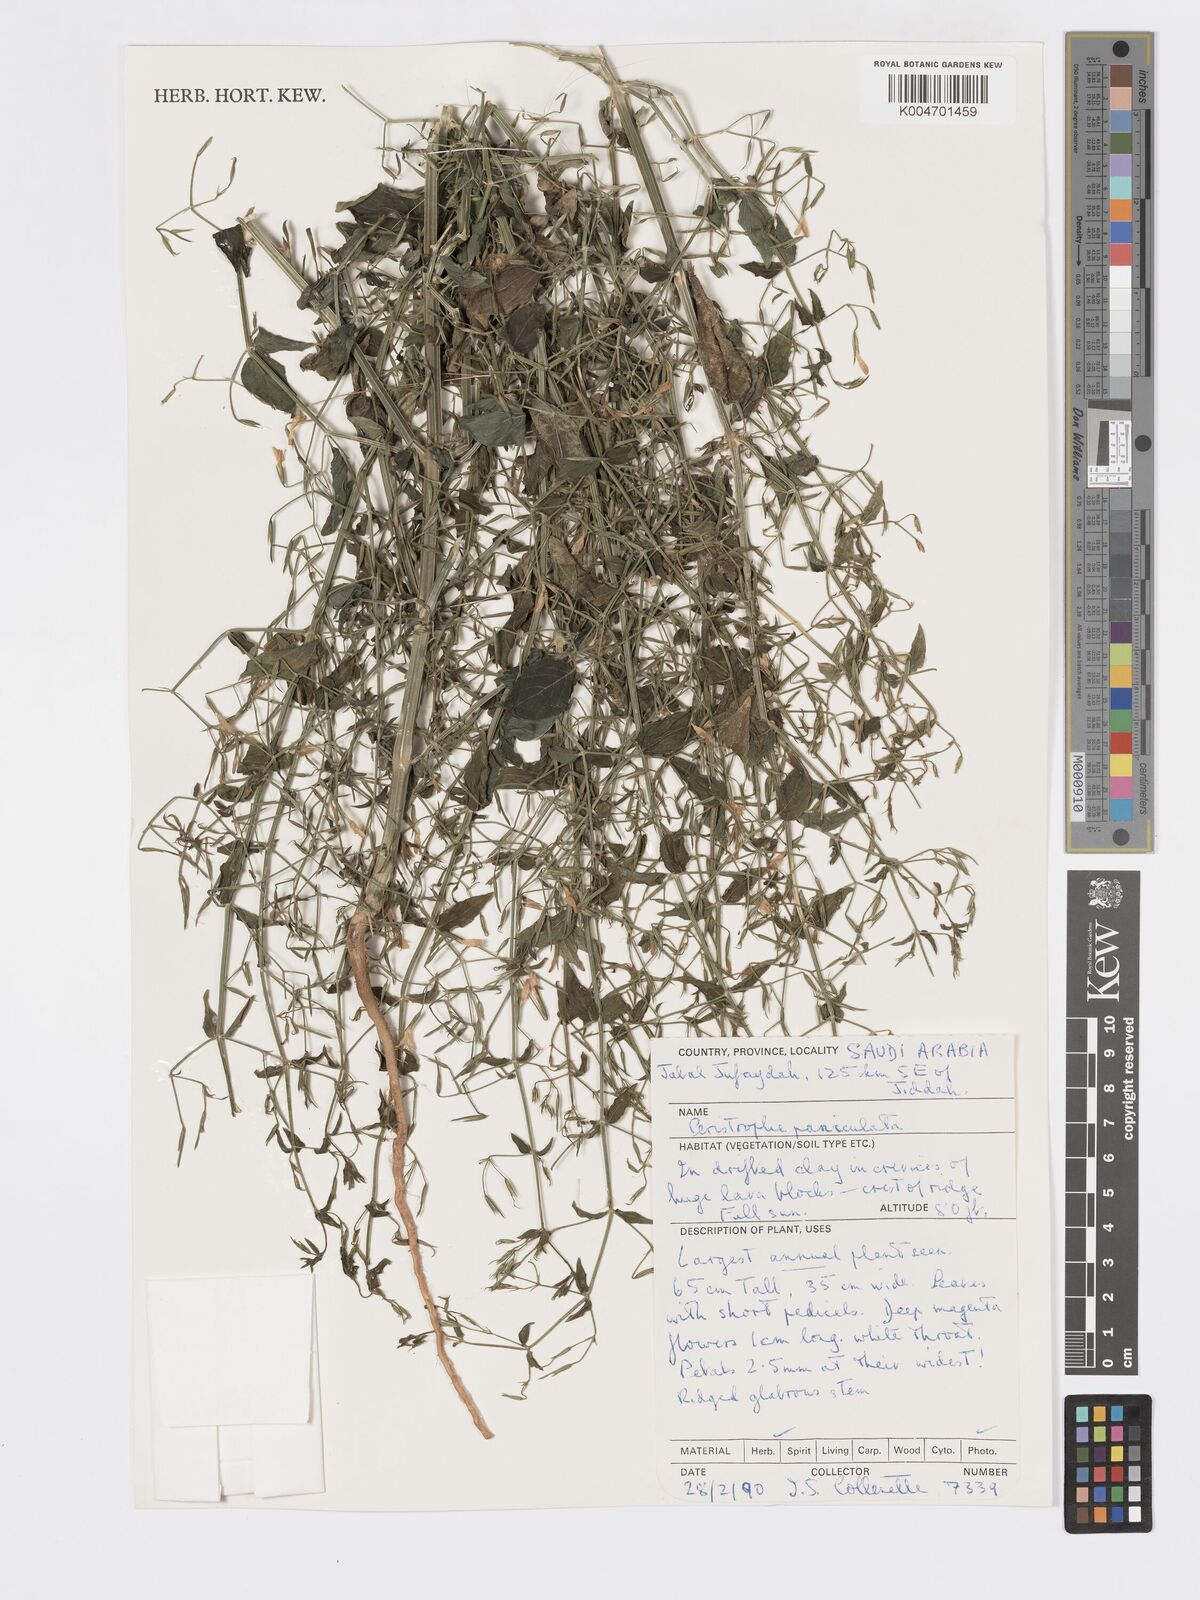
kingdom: Plantae
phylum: Tracheophyta
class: Magnoliopsida
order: Lamiales
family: Acanthaceae
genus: Dicliptera
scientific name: Dicliptera paniculata
